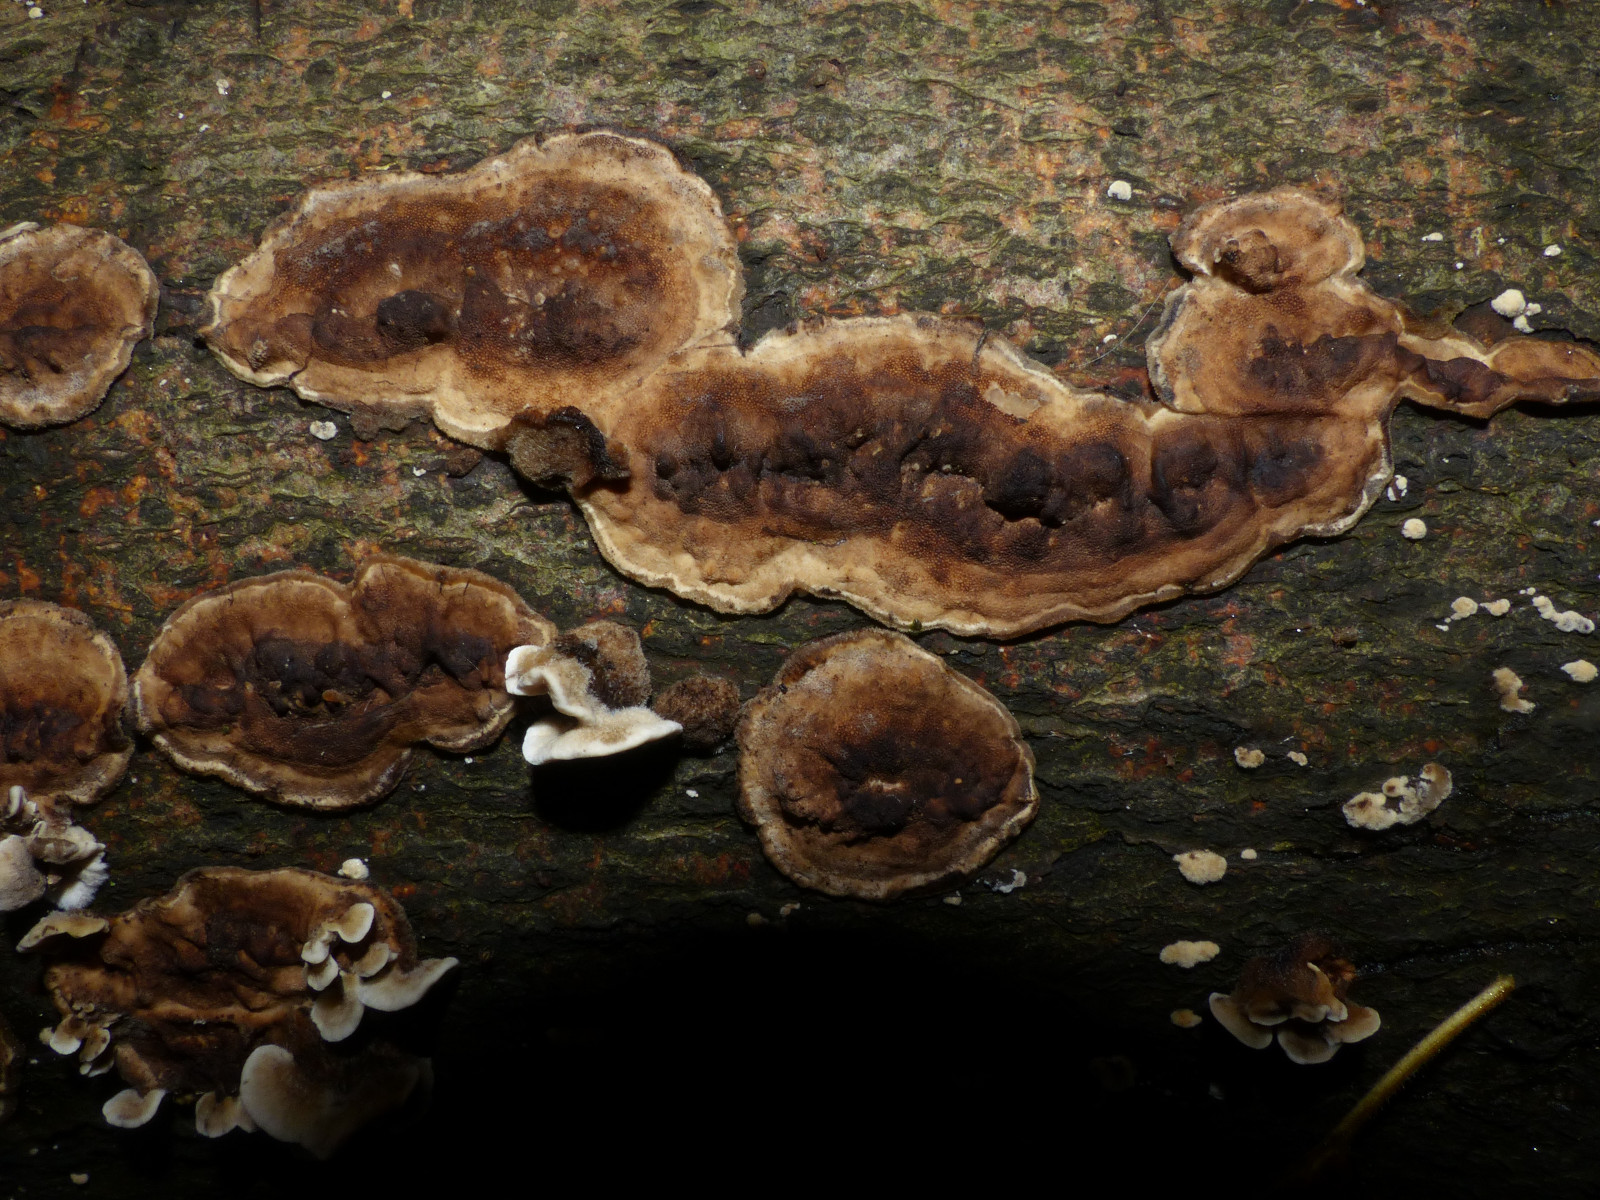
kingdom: Fungi
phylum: Basidiomycota
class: Agaricomycetes
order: Polyporales
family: Phanerochaetaceae
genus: Bjerkandera
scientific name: Bjerkandera adusta
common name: sveden sodporesvamp
